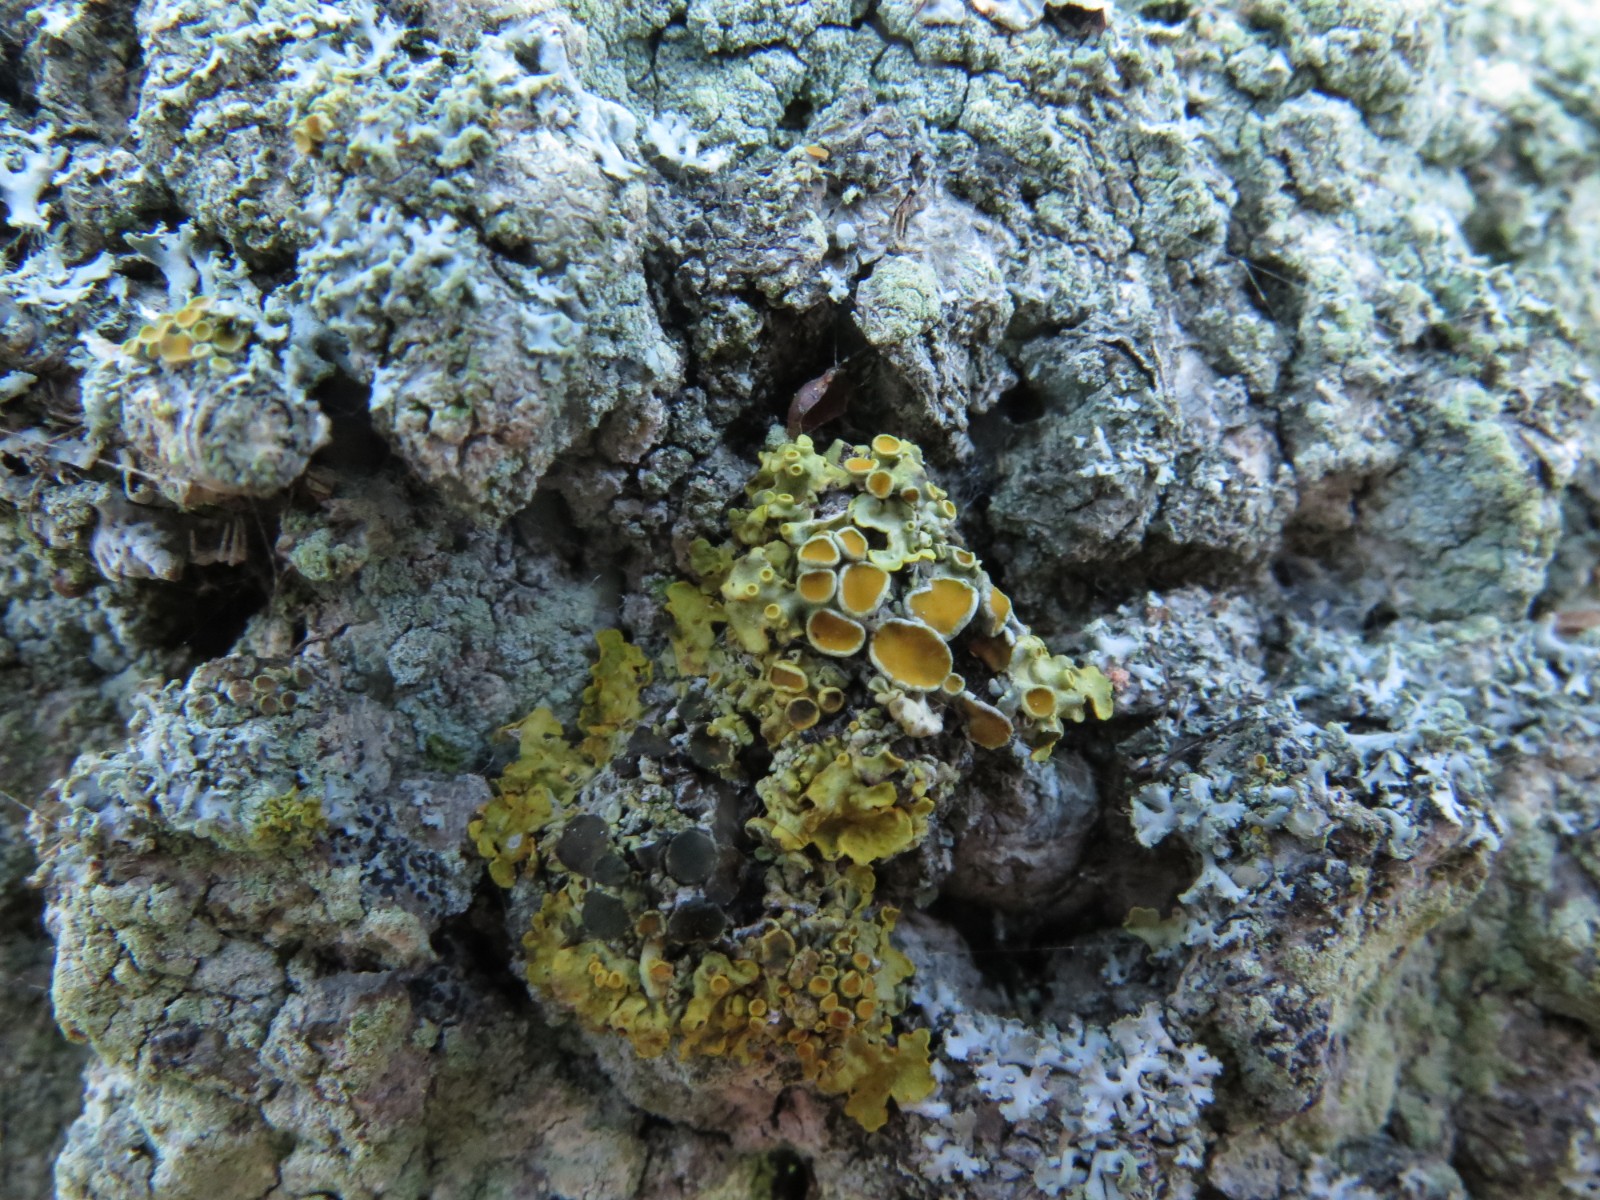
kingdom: Fungi
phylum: Ascomycota
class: Dothideomycetes
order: Mycosphaerellales
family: Teratosphaeriaceae
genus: Xanthoriicola
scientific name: Xanthoriicola physciae
